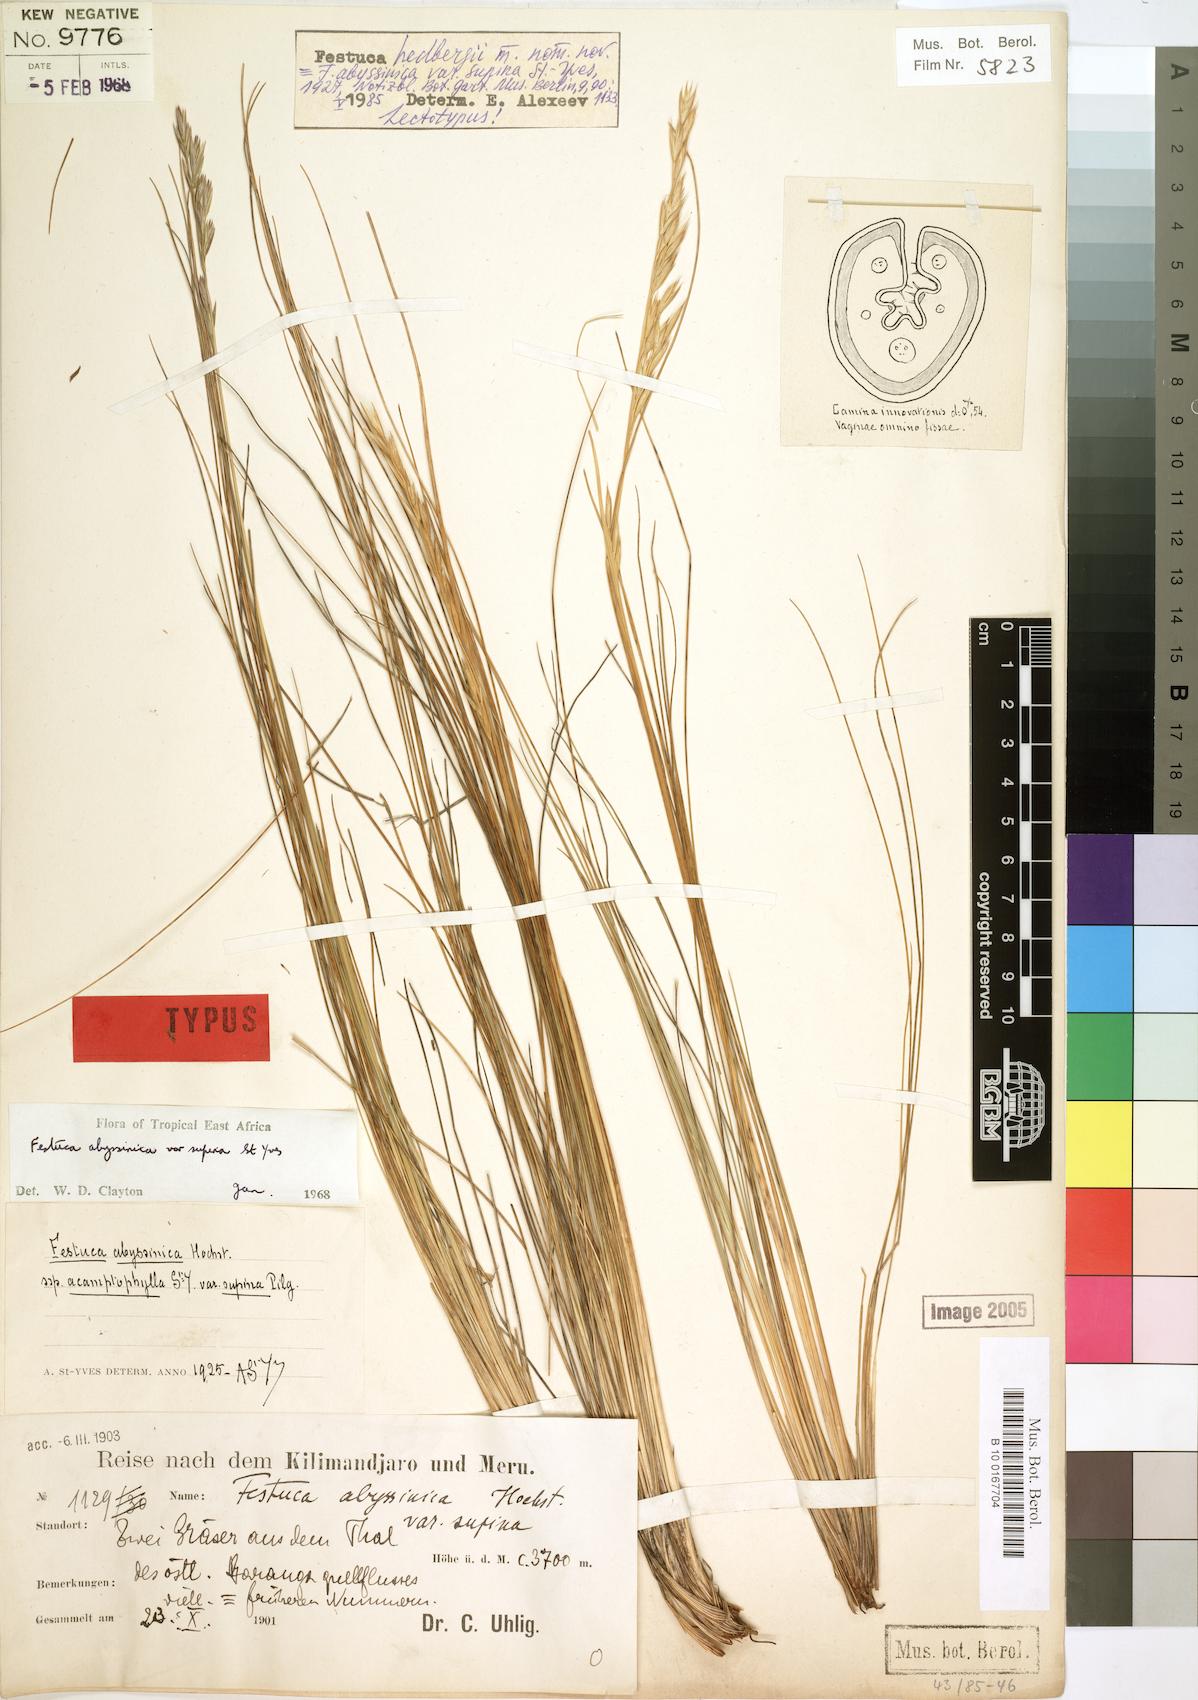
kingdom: Plantae
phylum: Tracheophyta
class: Liliopsida
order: Poales
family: Poaceae
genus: Festuca
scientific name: Festuca hedbergii
